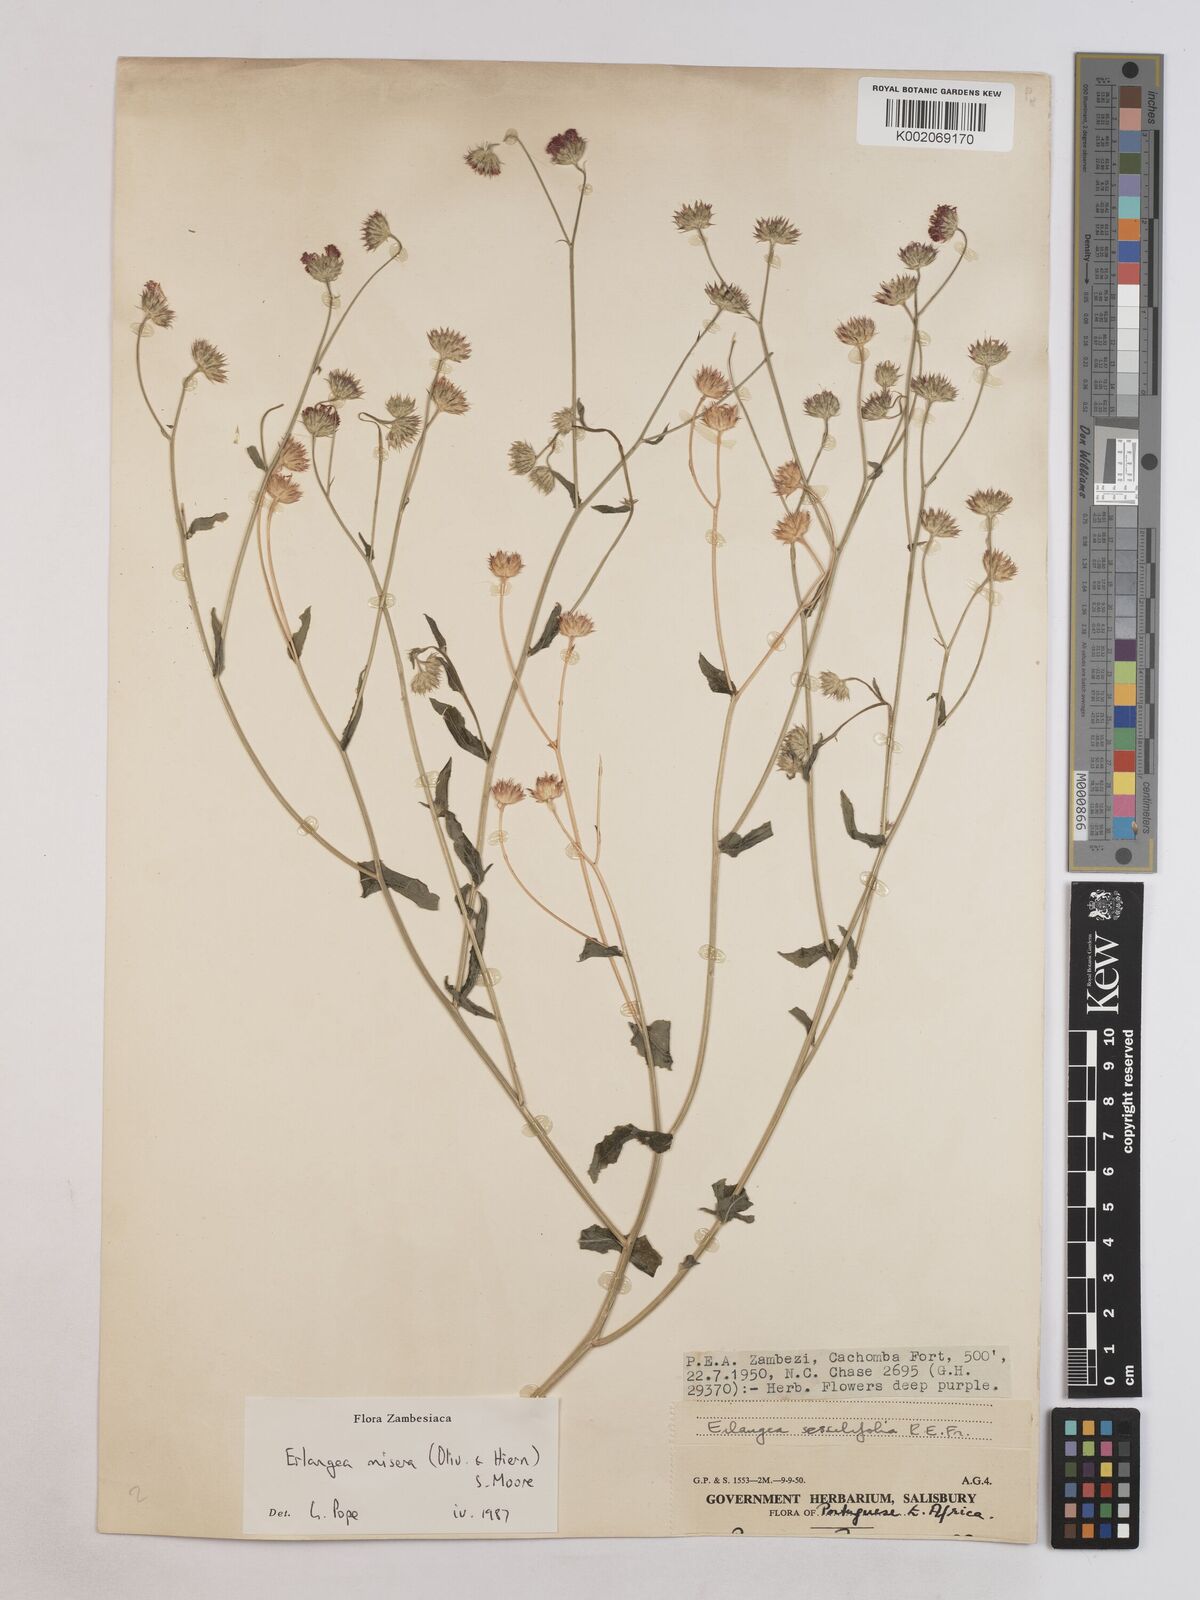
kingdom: Plantae
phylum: Tracheophyta
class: Magnoliopsida
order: Asterales
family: Asteraceae
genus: Erlangea
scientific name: Erlangea misera
